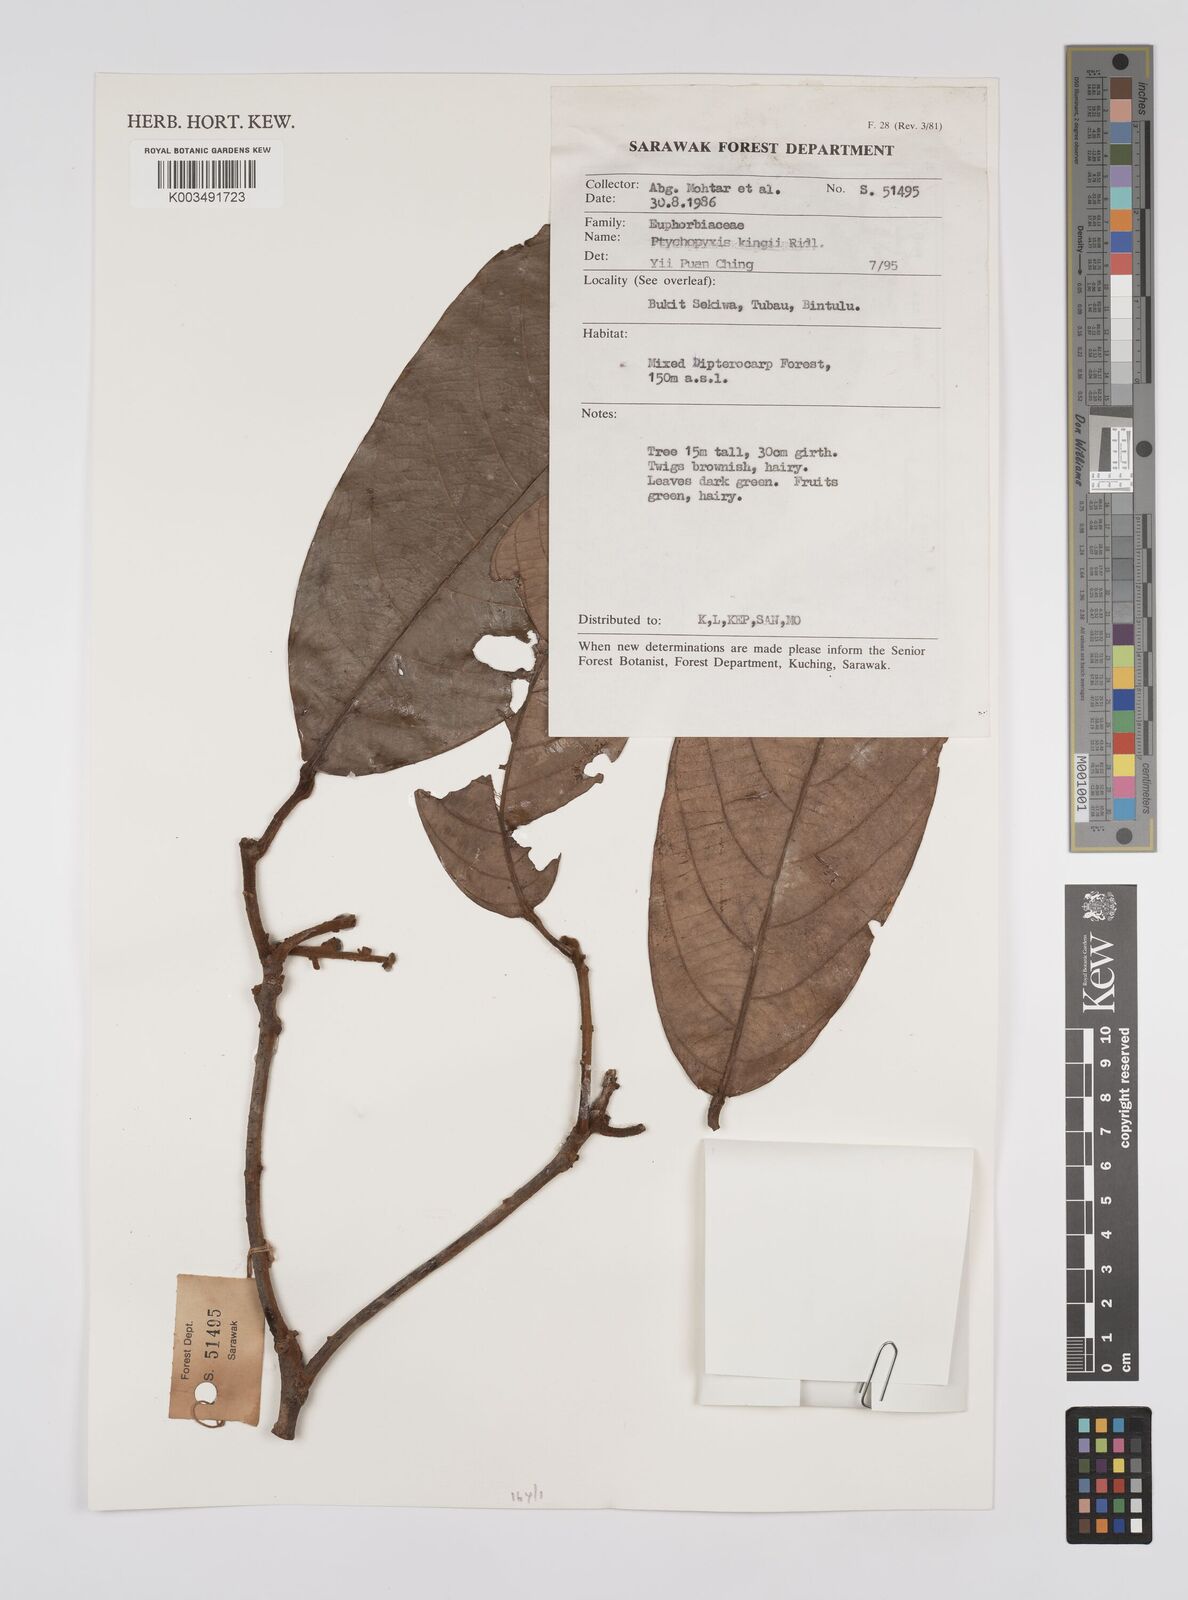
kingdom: Plantae
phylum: Tracheophyta
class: Magnoliopsida
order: Malpighiales
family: Euphorbiaceae
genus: Ptychopyxis
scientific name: Ptychopyxis kingii
